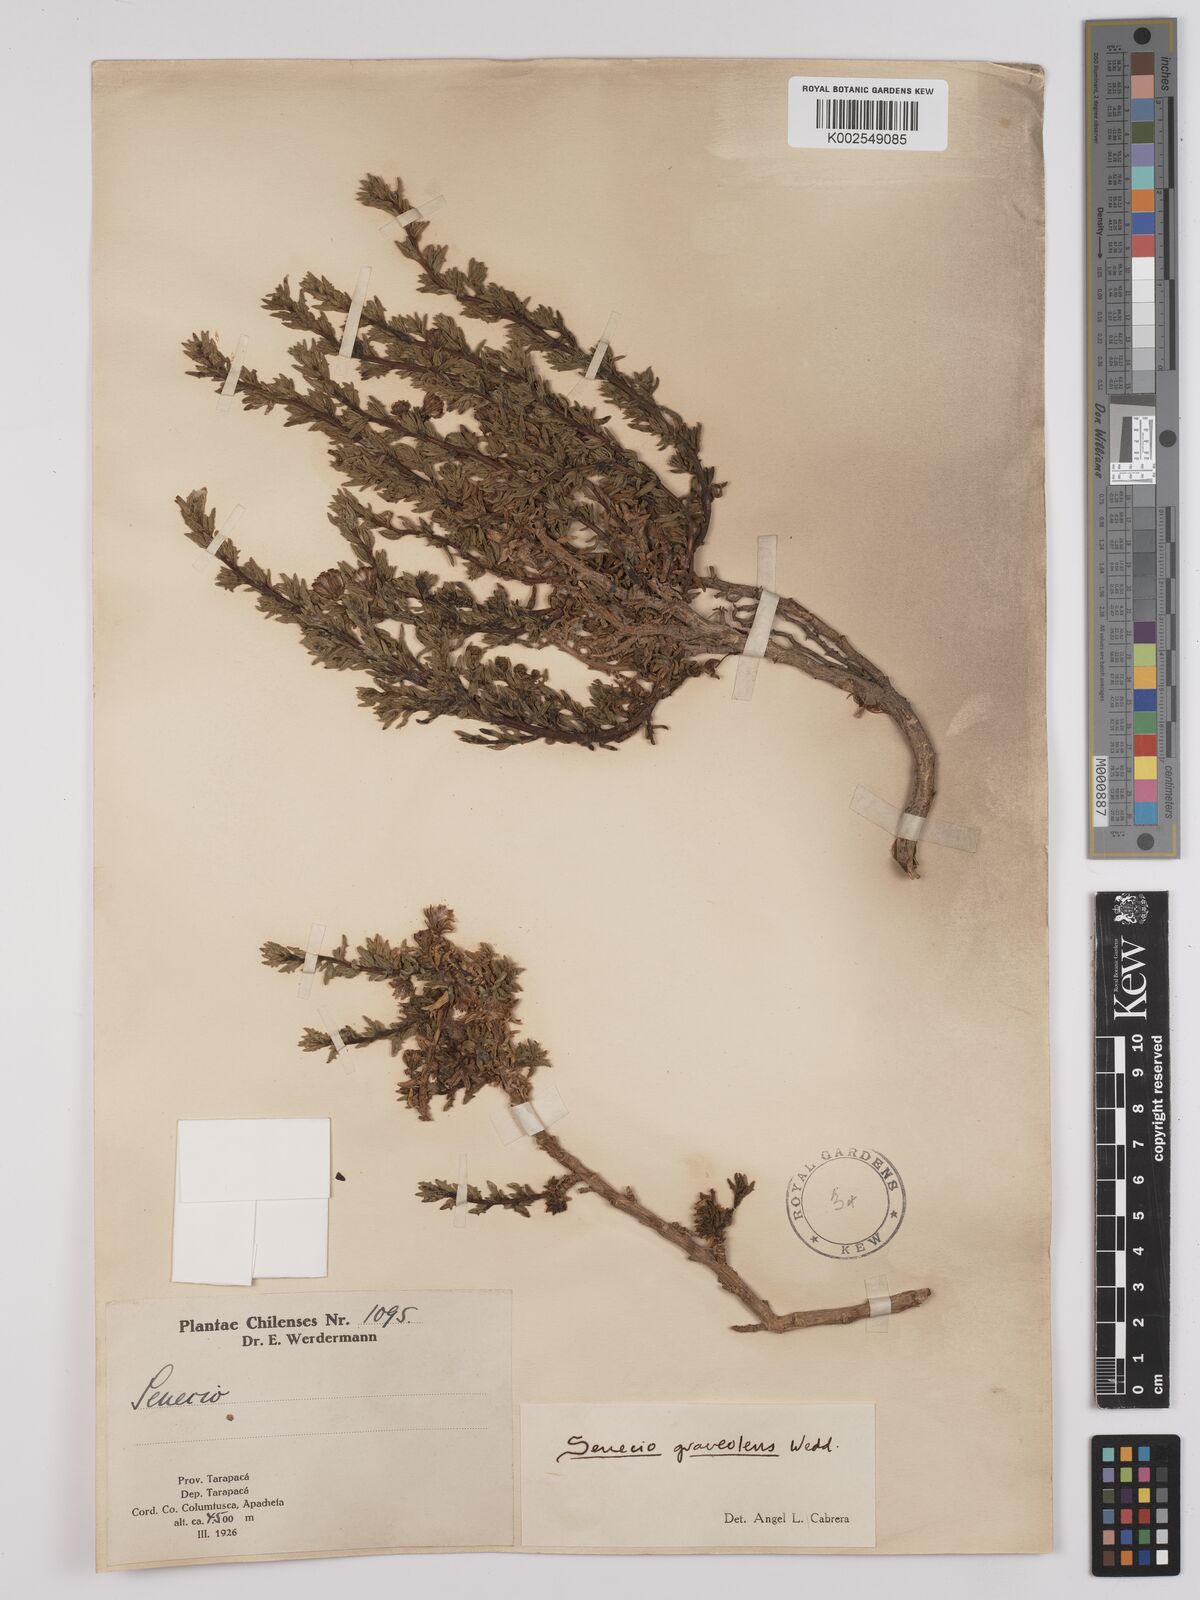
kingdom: Plantae
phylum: Tracheophyta
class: Magnoliopsida
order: Asterales
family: Asteraceae
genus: Senecio
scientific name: Senecio nutans
